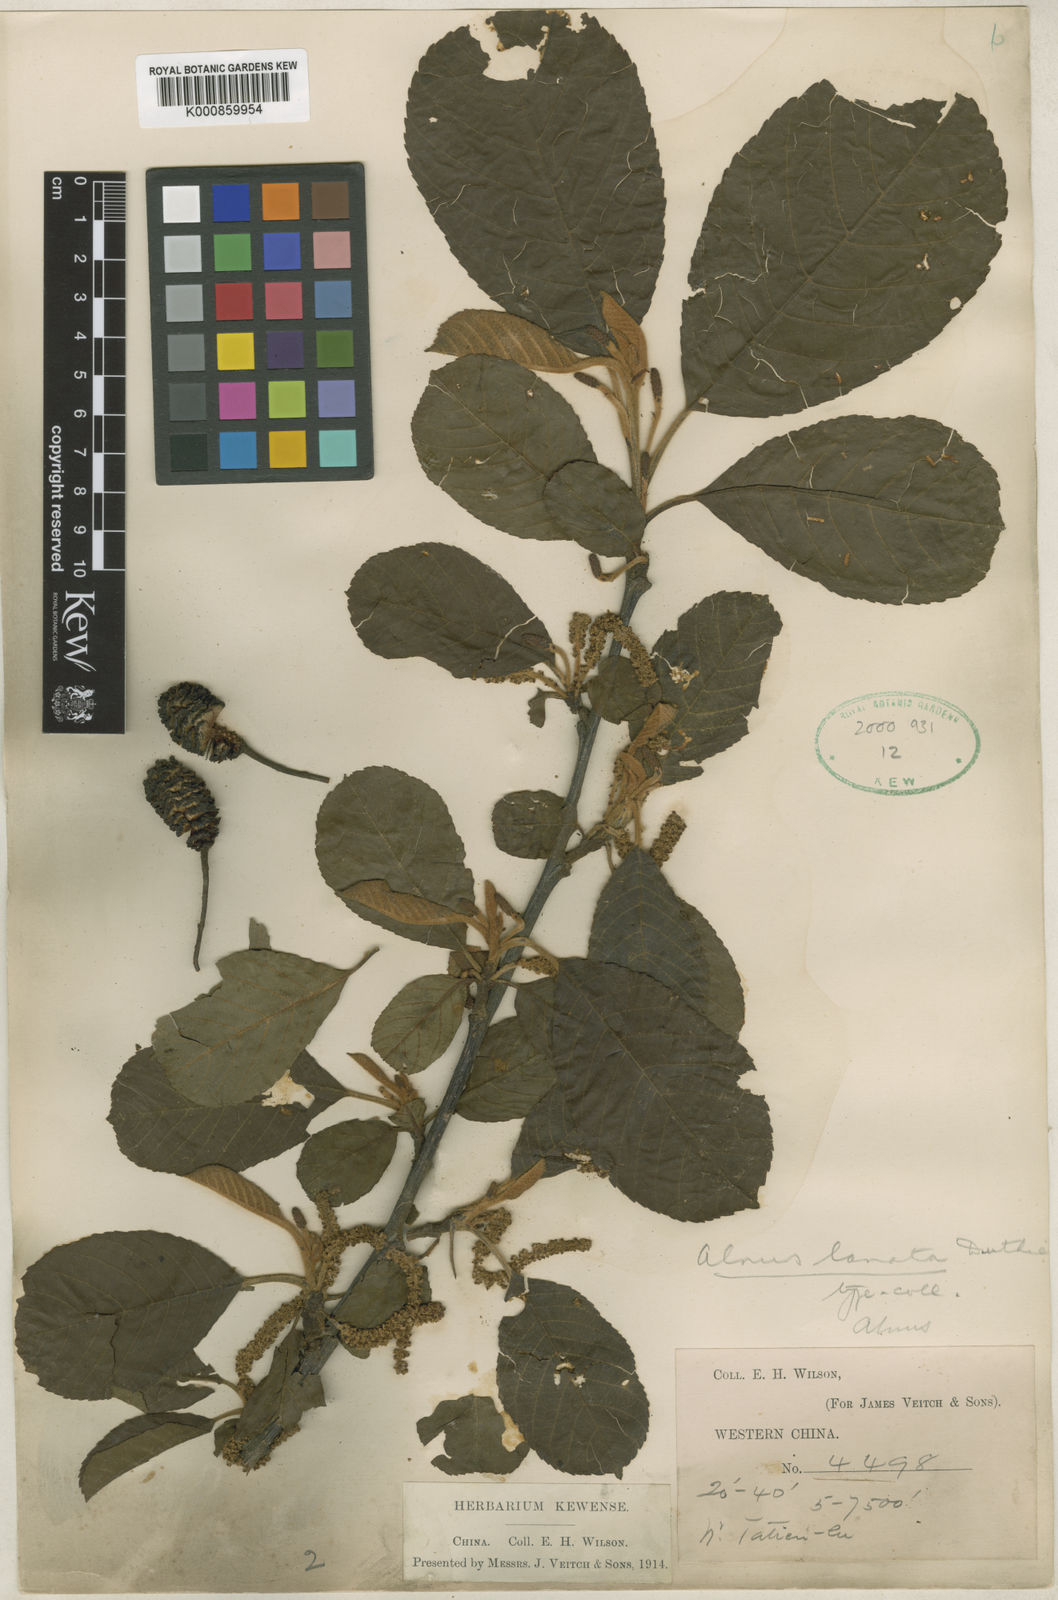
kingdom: Plantae
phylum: Tracheophyta
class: Magnoliopsida
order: Fagales
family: Betulaceae
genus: Alnus
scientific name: Alnus lanata
